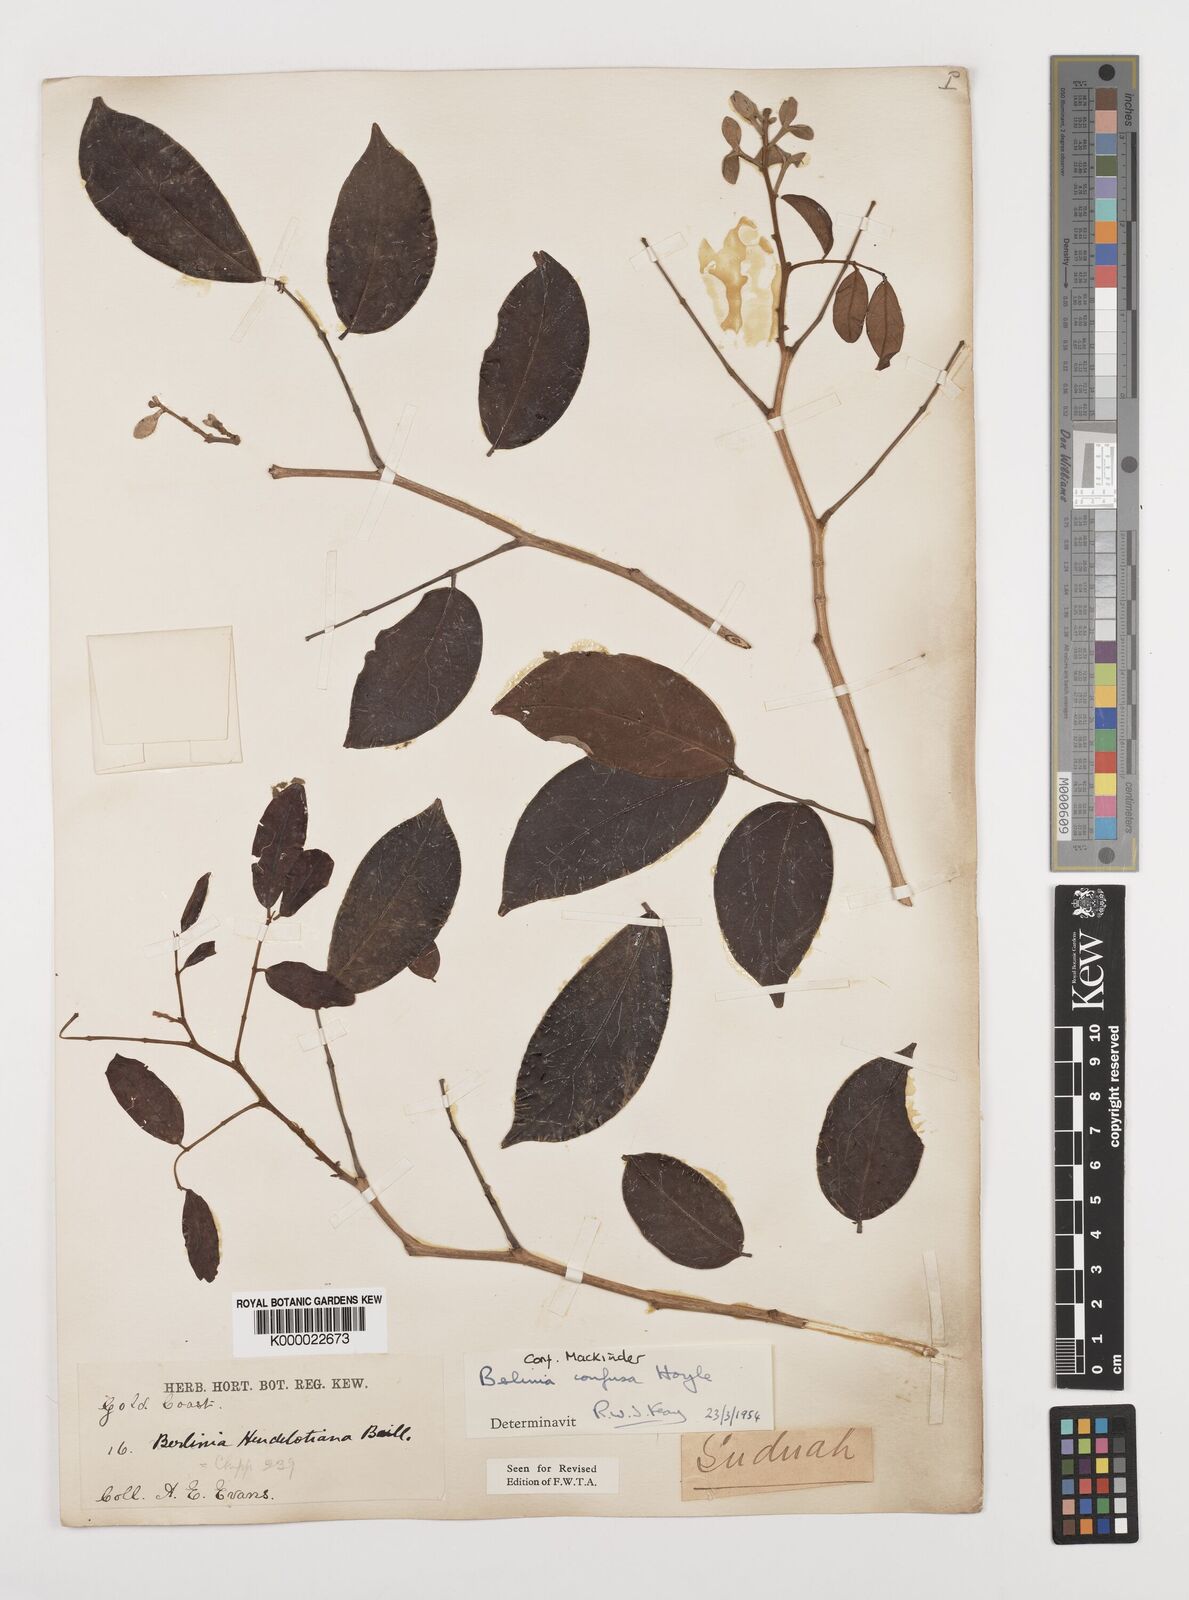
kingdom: Plantae
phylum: Tracheophyta
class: Magnoliopsida
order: Fabales
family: Fabaceae
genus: Berlinia
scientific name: Berlinia confusa
